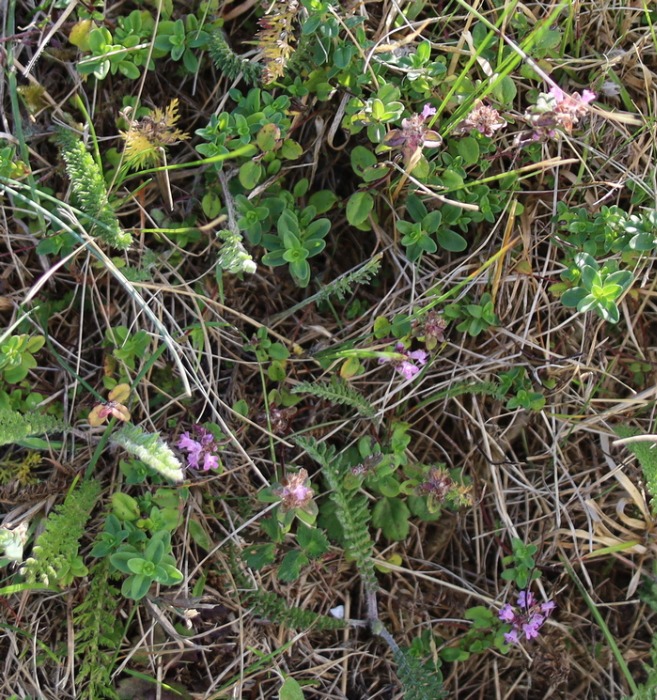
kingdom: Plantae
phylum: Tracheophyta
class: Magnoliopsida
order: Lamiales
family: Lamiaceae
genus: Thymus
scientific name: Thymus pulegioides
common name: Bredbladet timian
